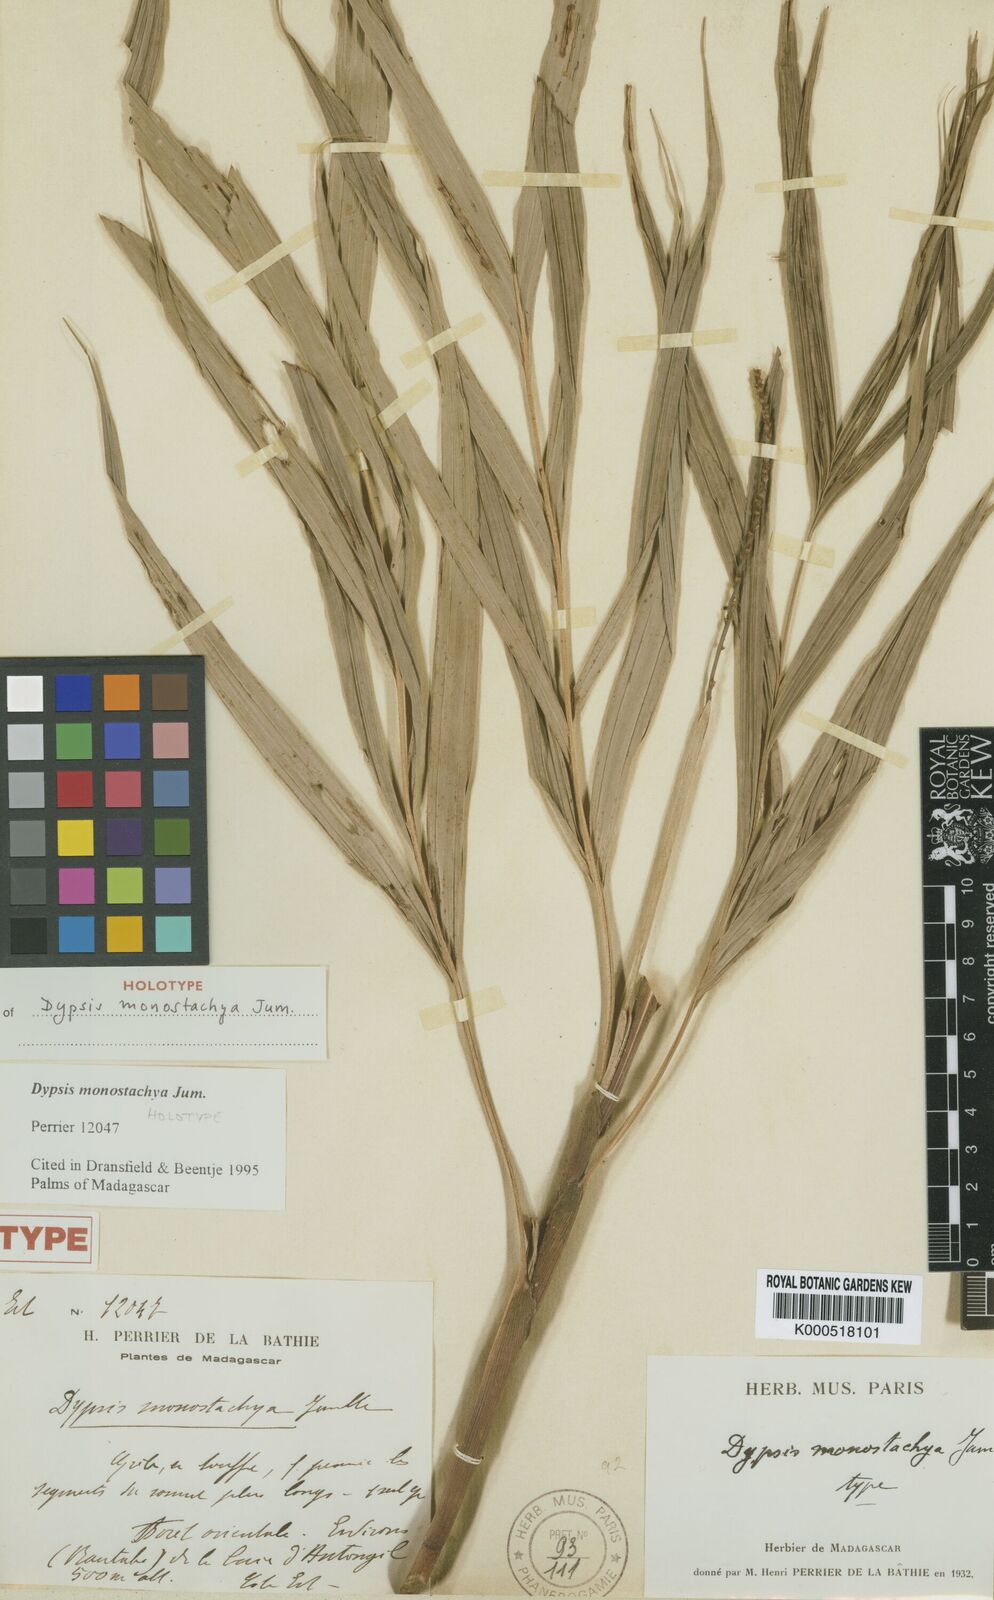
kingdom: Plantae
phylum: Tracheophyta
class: Liliopsida
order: Arecales
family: Arecaceae
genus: Dypsis
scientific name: Dypsis monostachya
